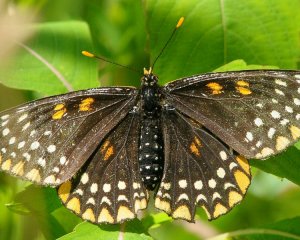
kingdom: Animalia
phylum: Arthropoda
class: Insecta
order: Lepidoptera
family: Nymphalidae
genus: Euphydryas
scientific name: Euphydryas phaeton
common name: Baltimore Checkerspot
